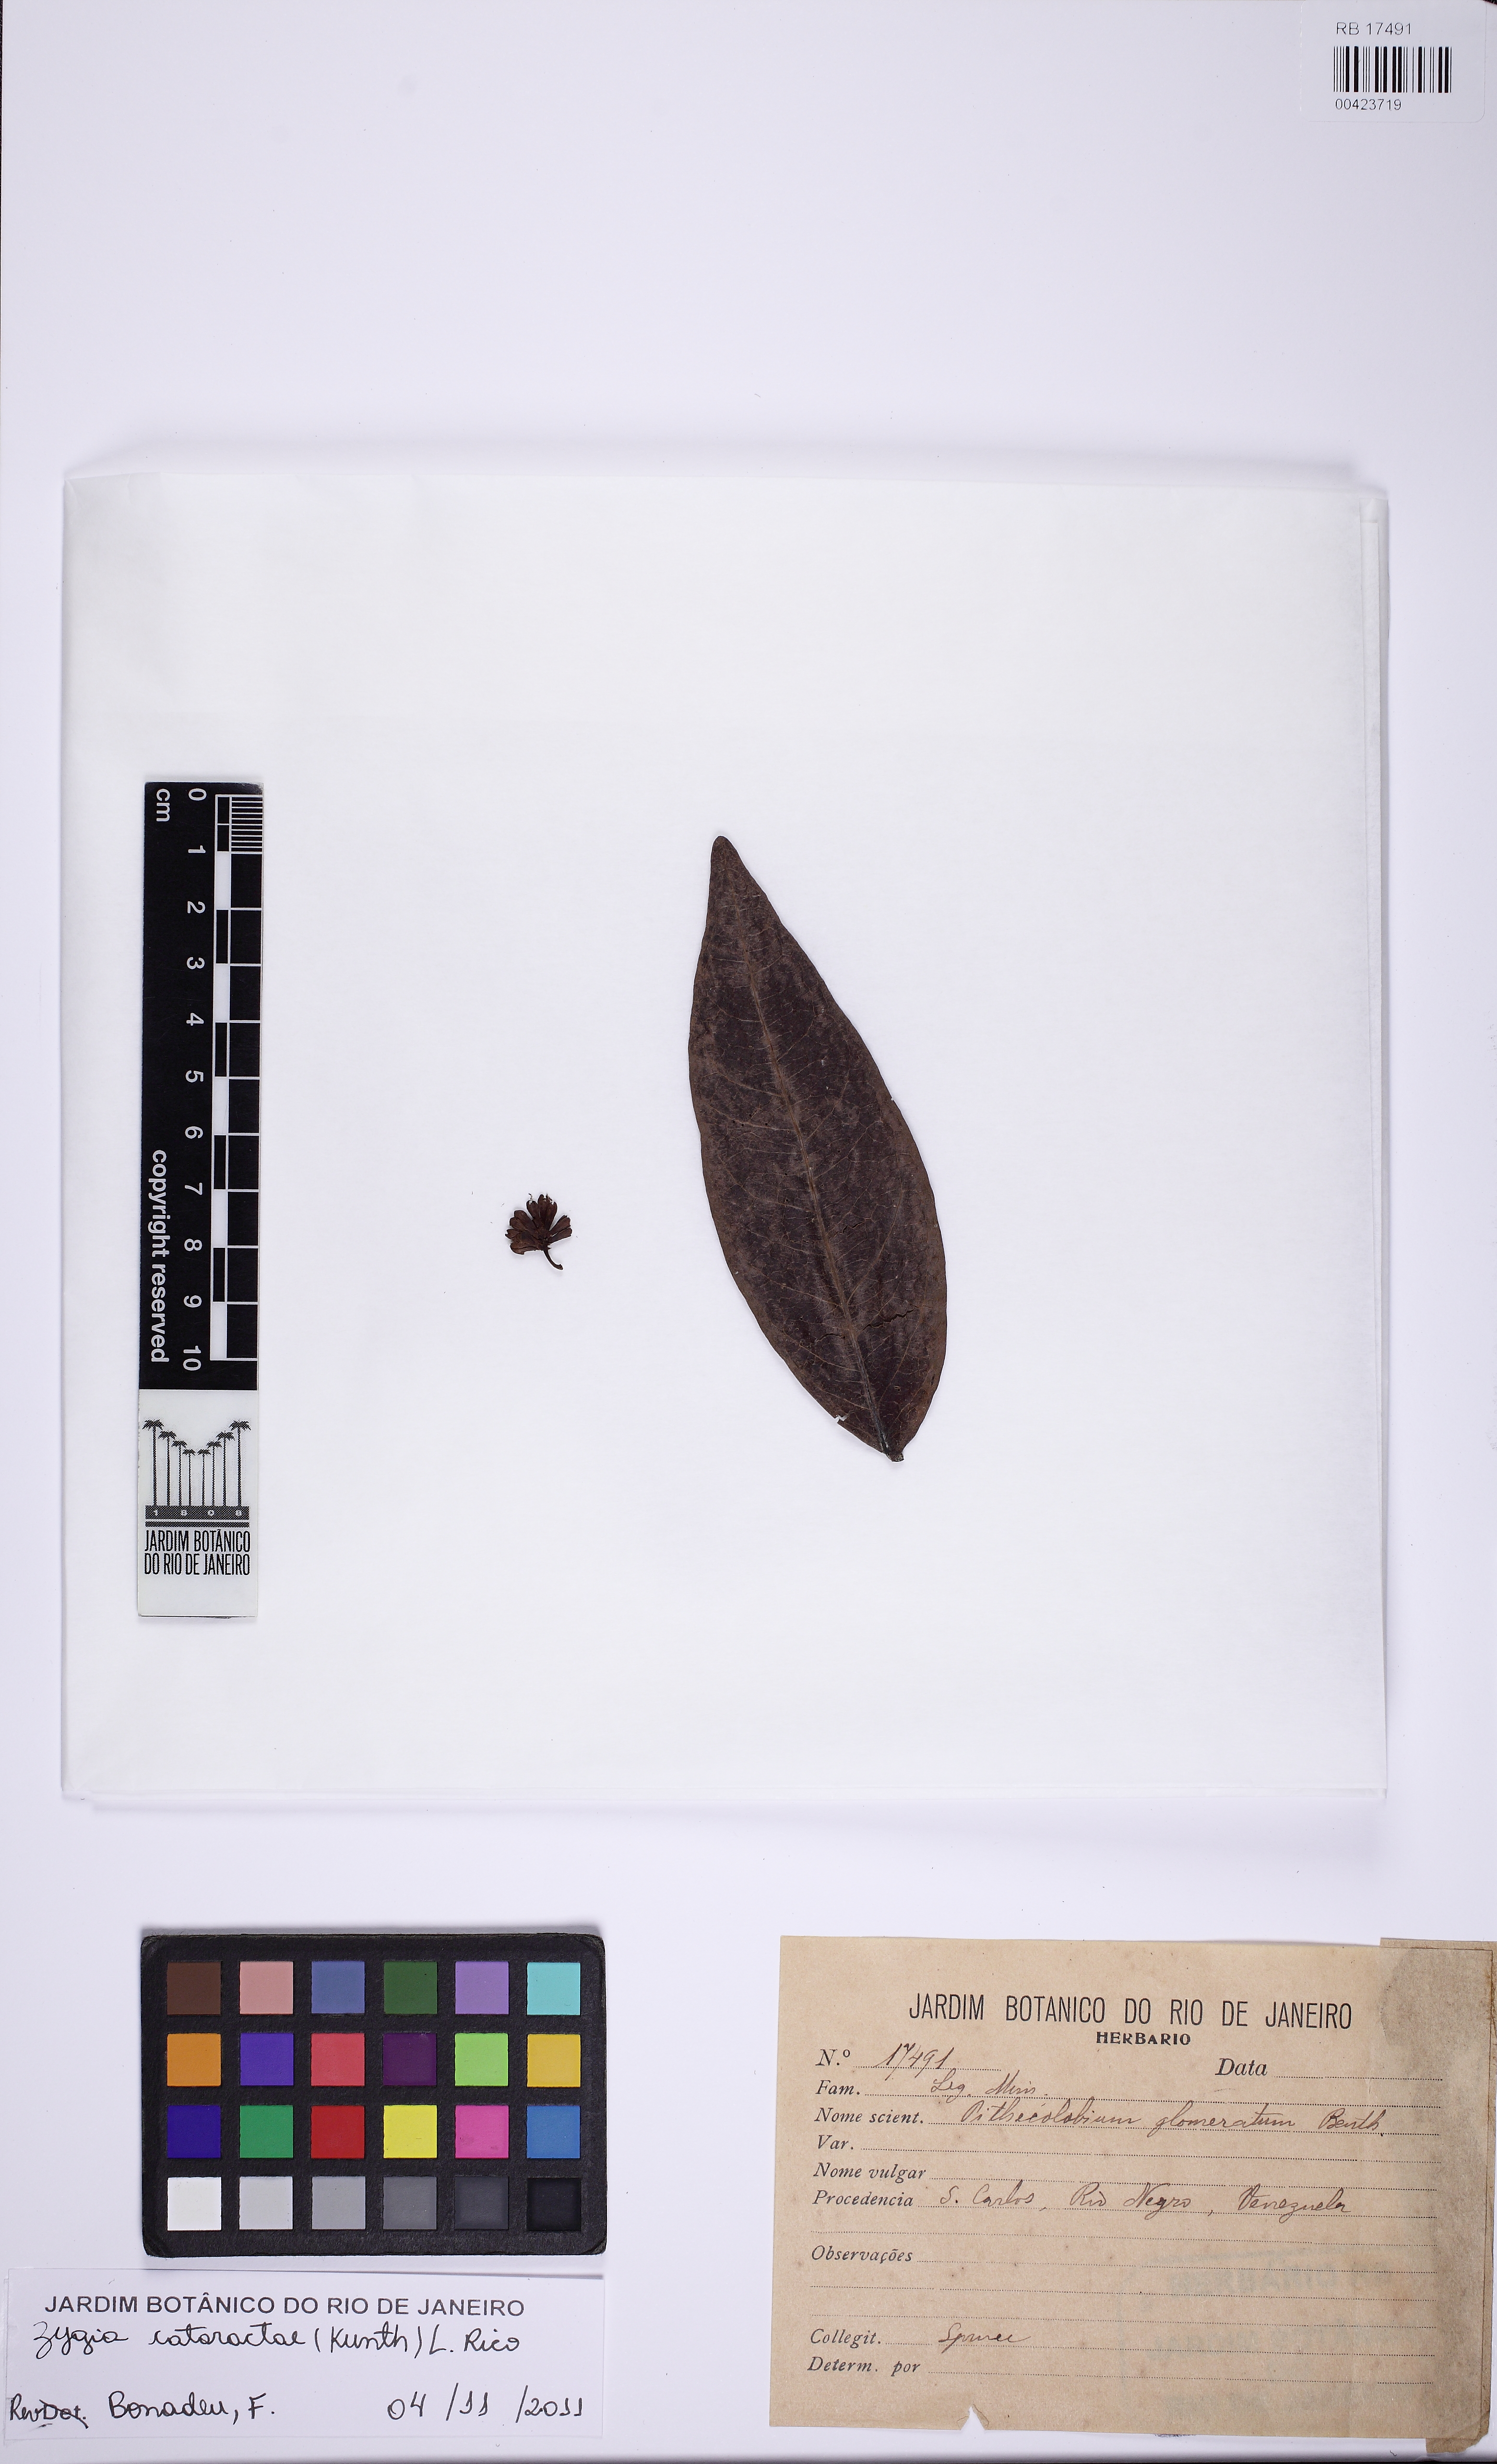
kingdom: Plantae
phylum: Tracheophyta
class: Magnoliopsida
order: Fabales
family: Fabaceae
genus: Zygia
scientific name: Zygia cataractae
